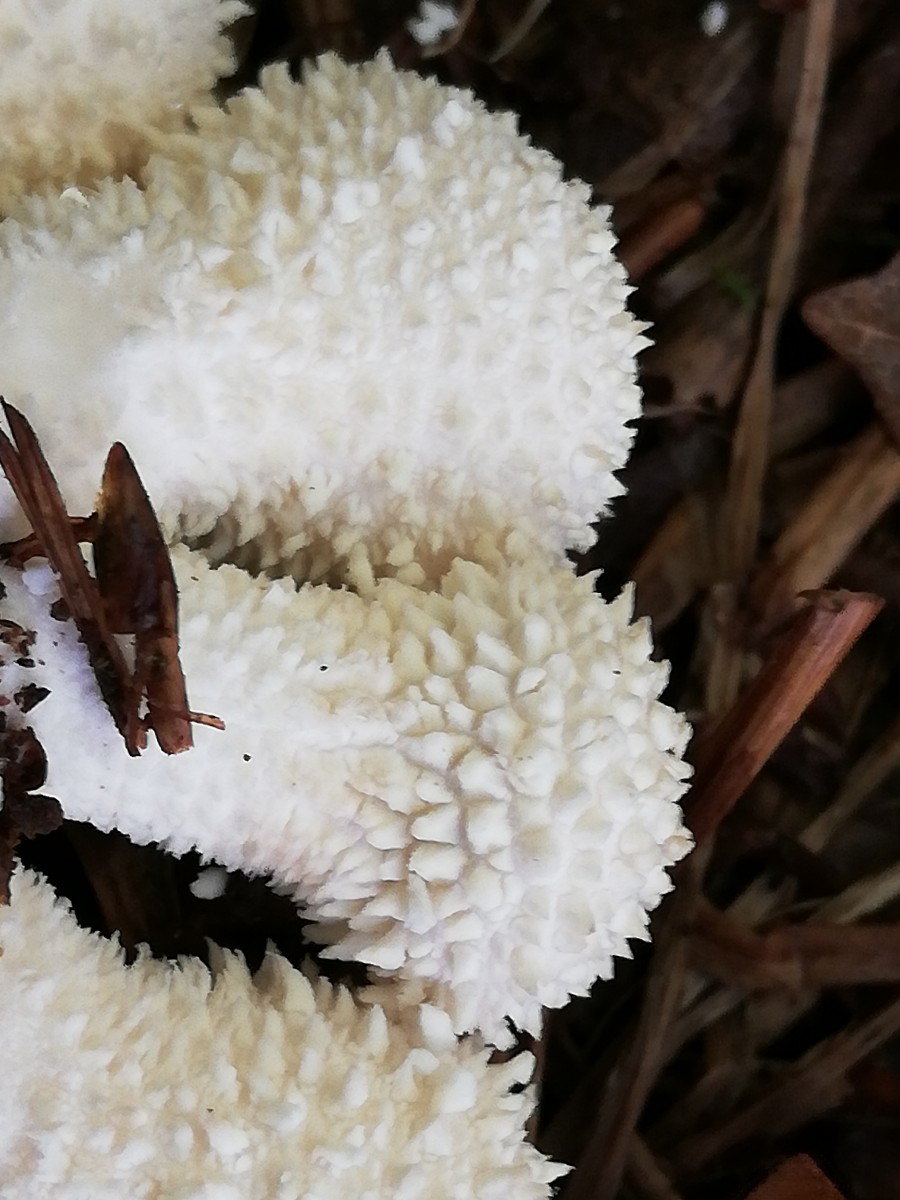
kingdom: Fungi
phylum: Basidiomycota
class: Agaricomycetes
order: Agaricales
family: Lycoperdaceae
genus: Lycoperdon
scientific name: Lycoperdon perlatum
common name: krystal-støvbold
